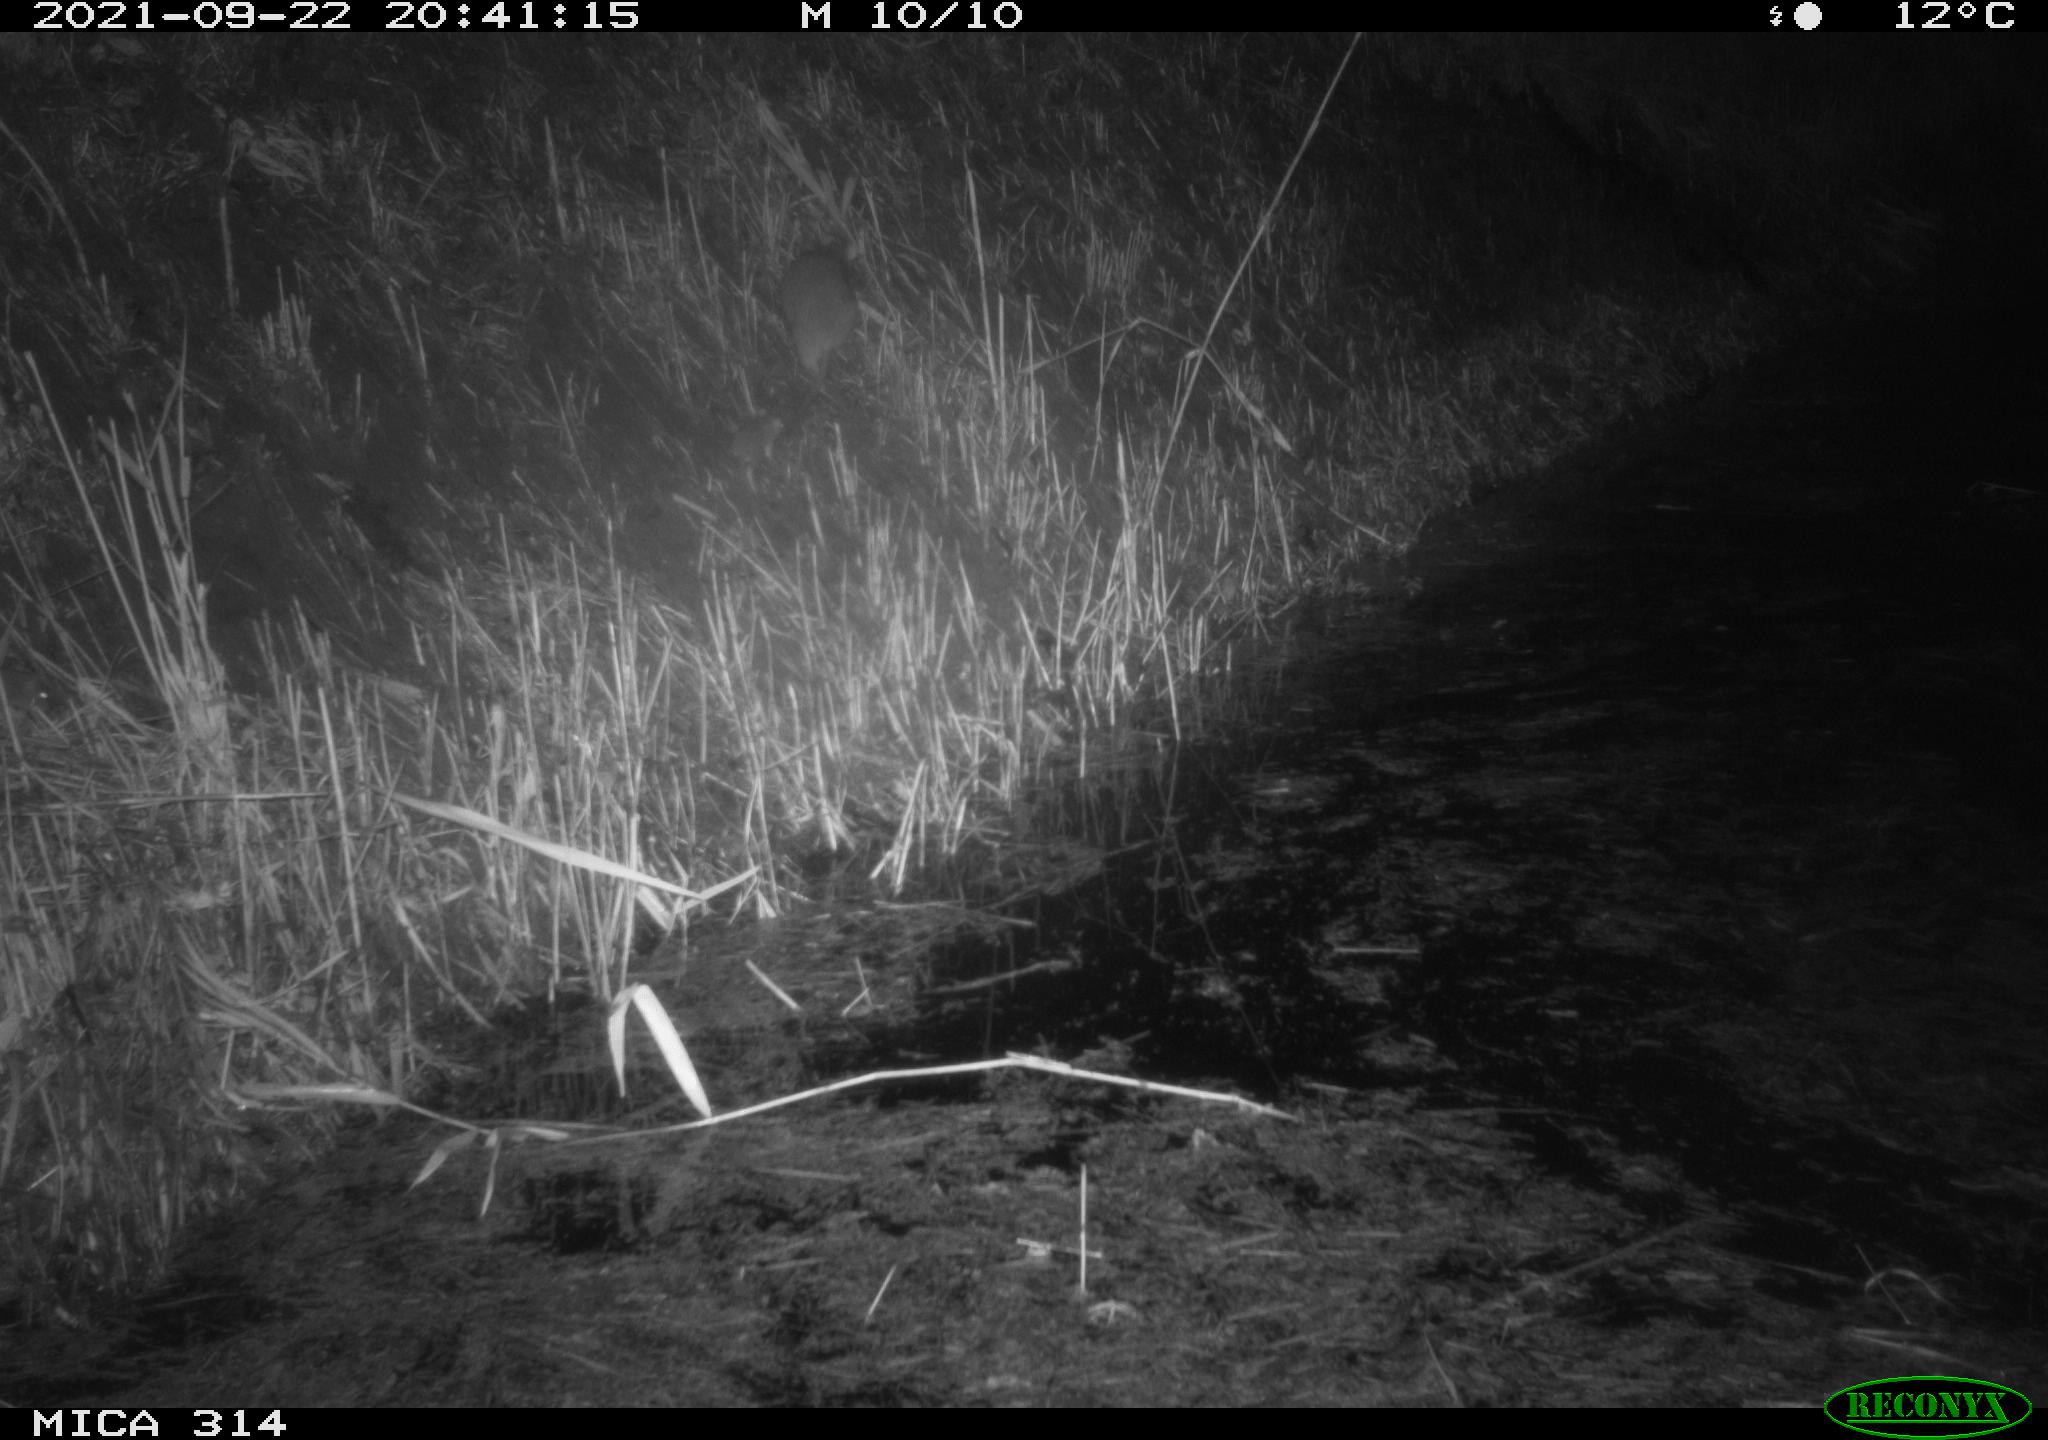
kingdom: Animalia
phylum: Chordata
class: Mammalia
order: Rodentia
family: Muridae
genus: Rattus
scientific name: Rattus norvegicus
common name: Brown rat
